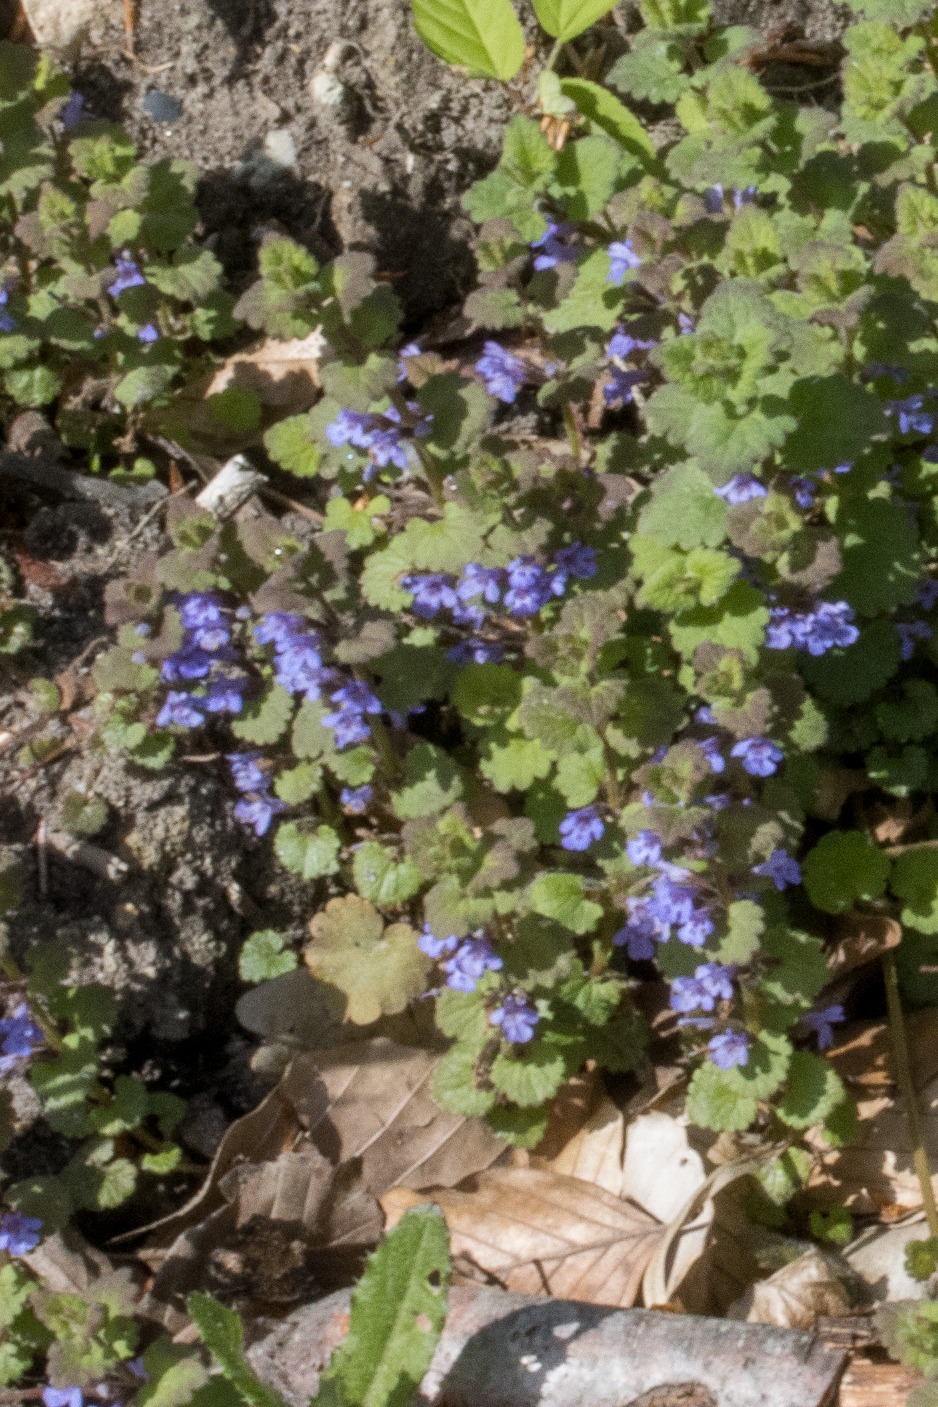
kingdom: Plantae
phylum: Tracheophyta
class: Magnoliopsida
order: Lamiales
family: Lamiaceae
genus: Glechoma
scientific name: Glechoma hederacea
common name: Korsknap
